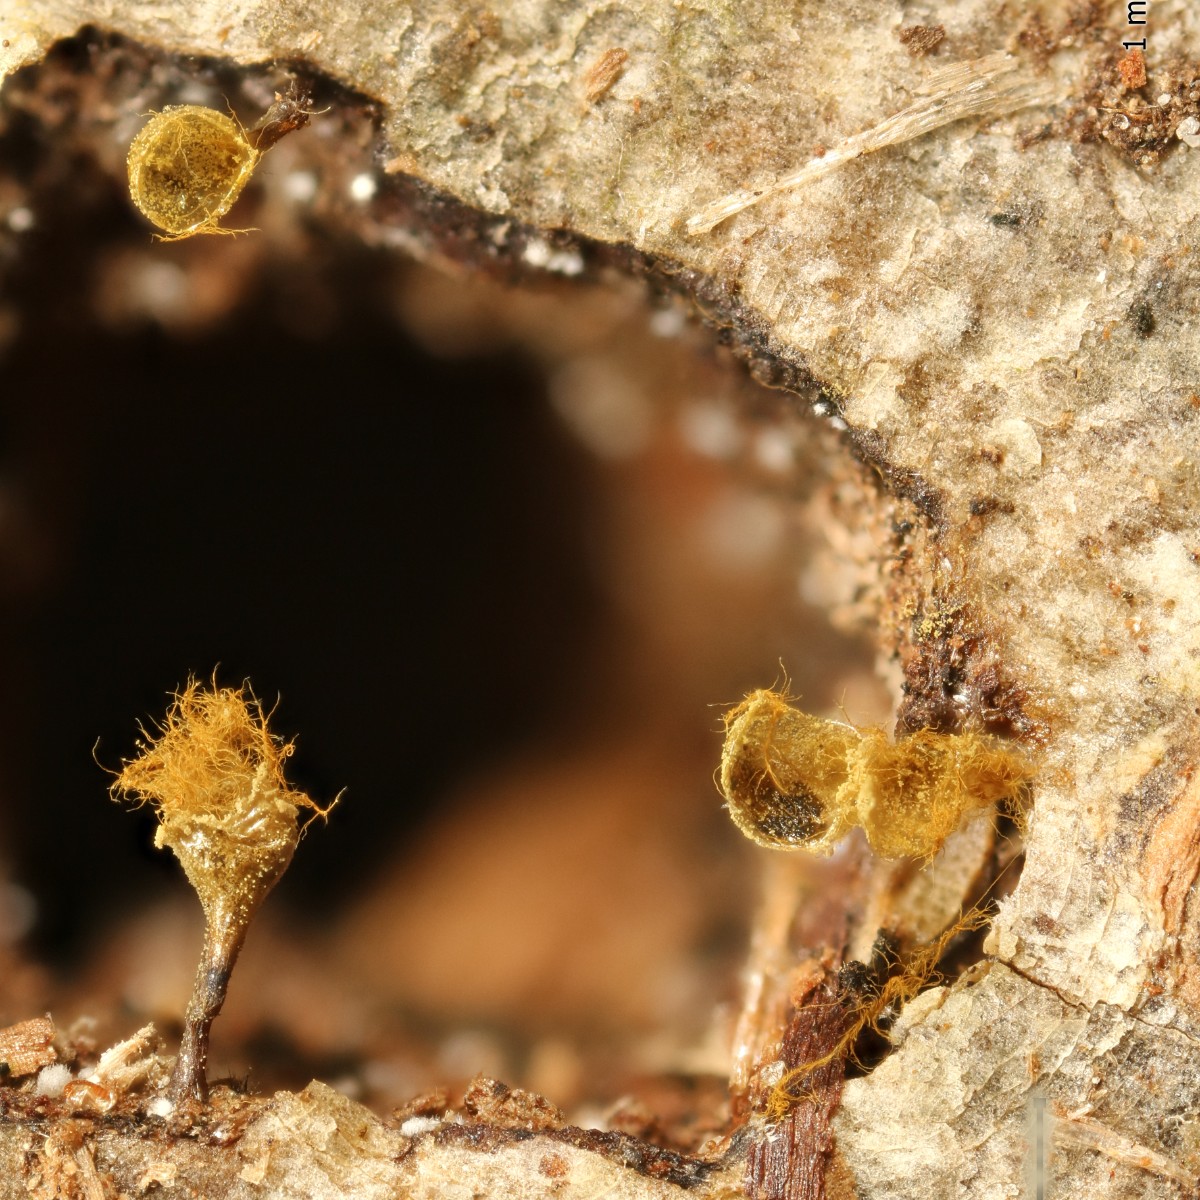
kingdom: Protozoa
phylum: Mycetozoa
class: Myxomycetes
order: Trichiales
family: Trichiaceae
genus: Trichia
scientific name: Trichia crateriformis
